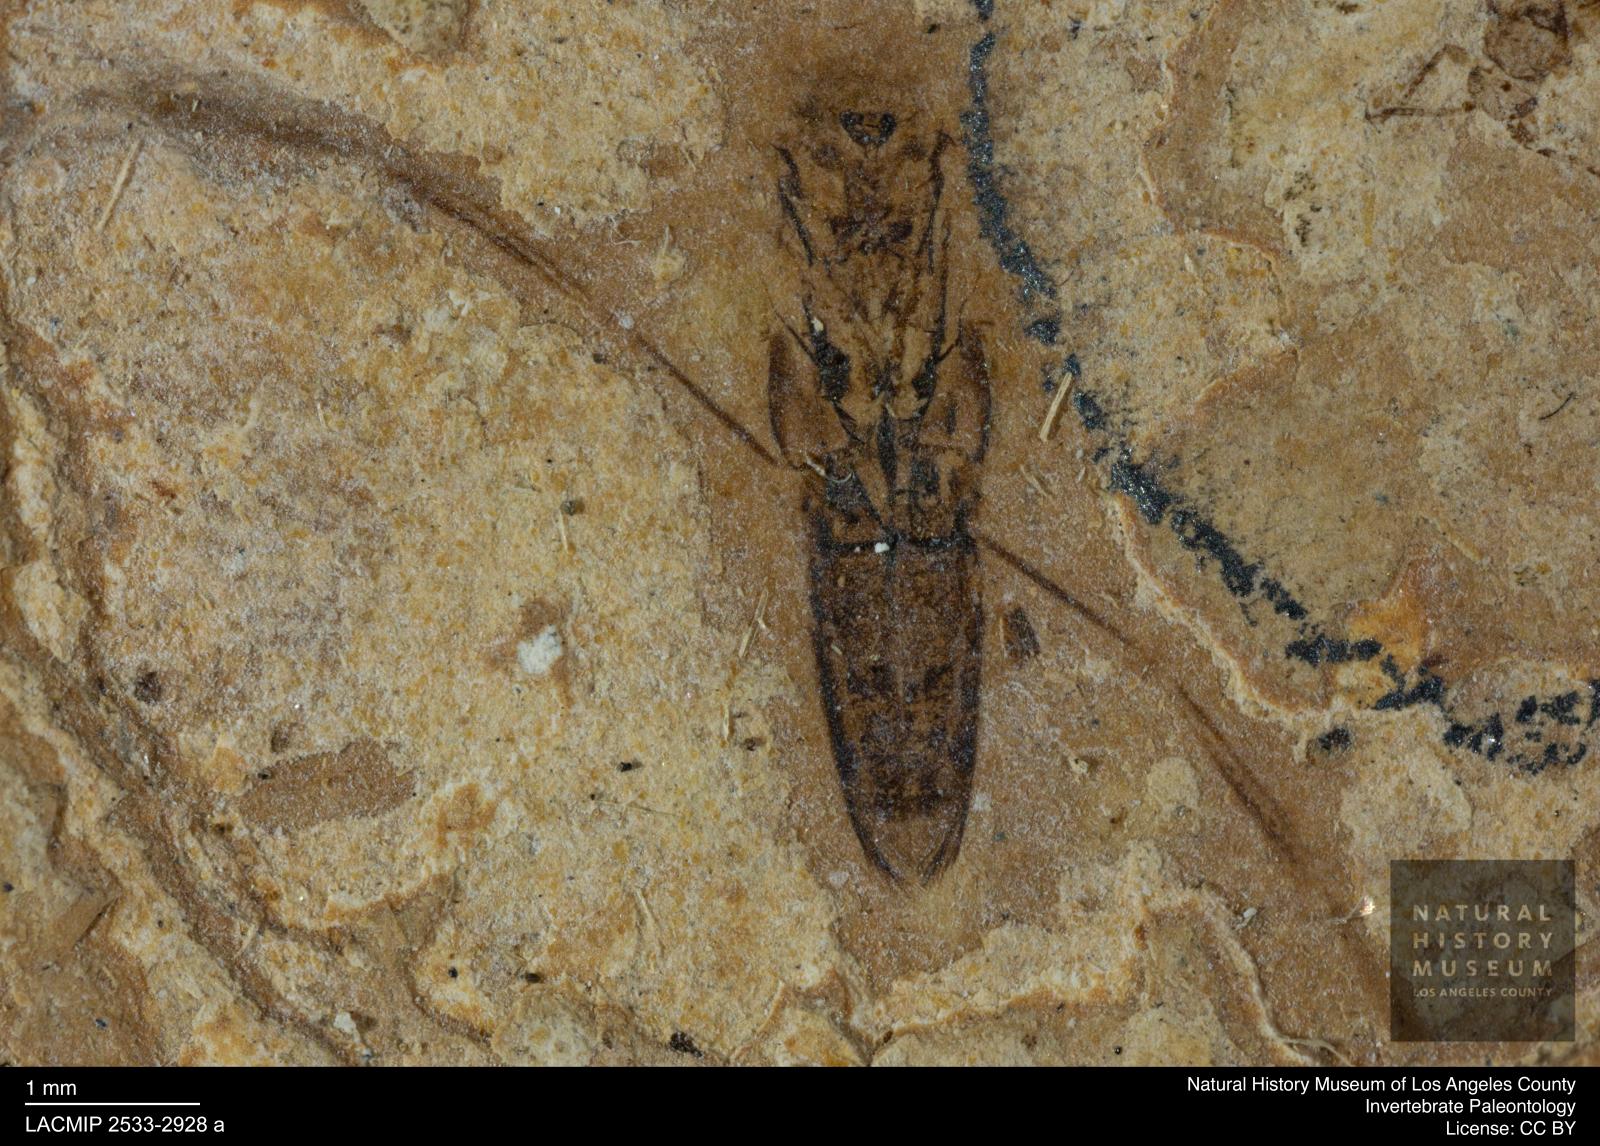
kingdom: Animalia
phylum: Arthropoda
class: Insecta
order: Hemiptera
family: Notonectidae
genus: Notonecta
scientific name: Notonecta
